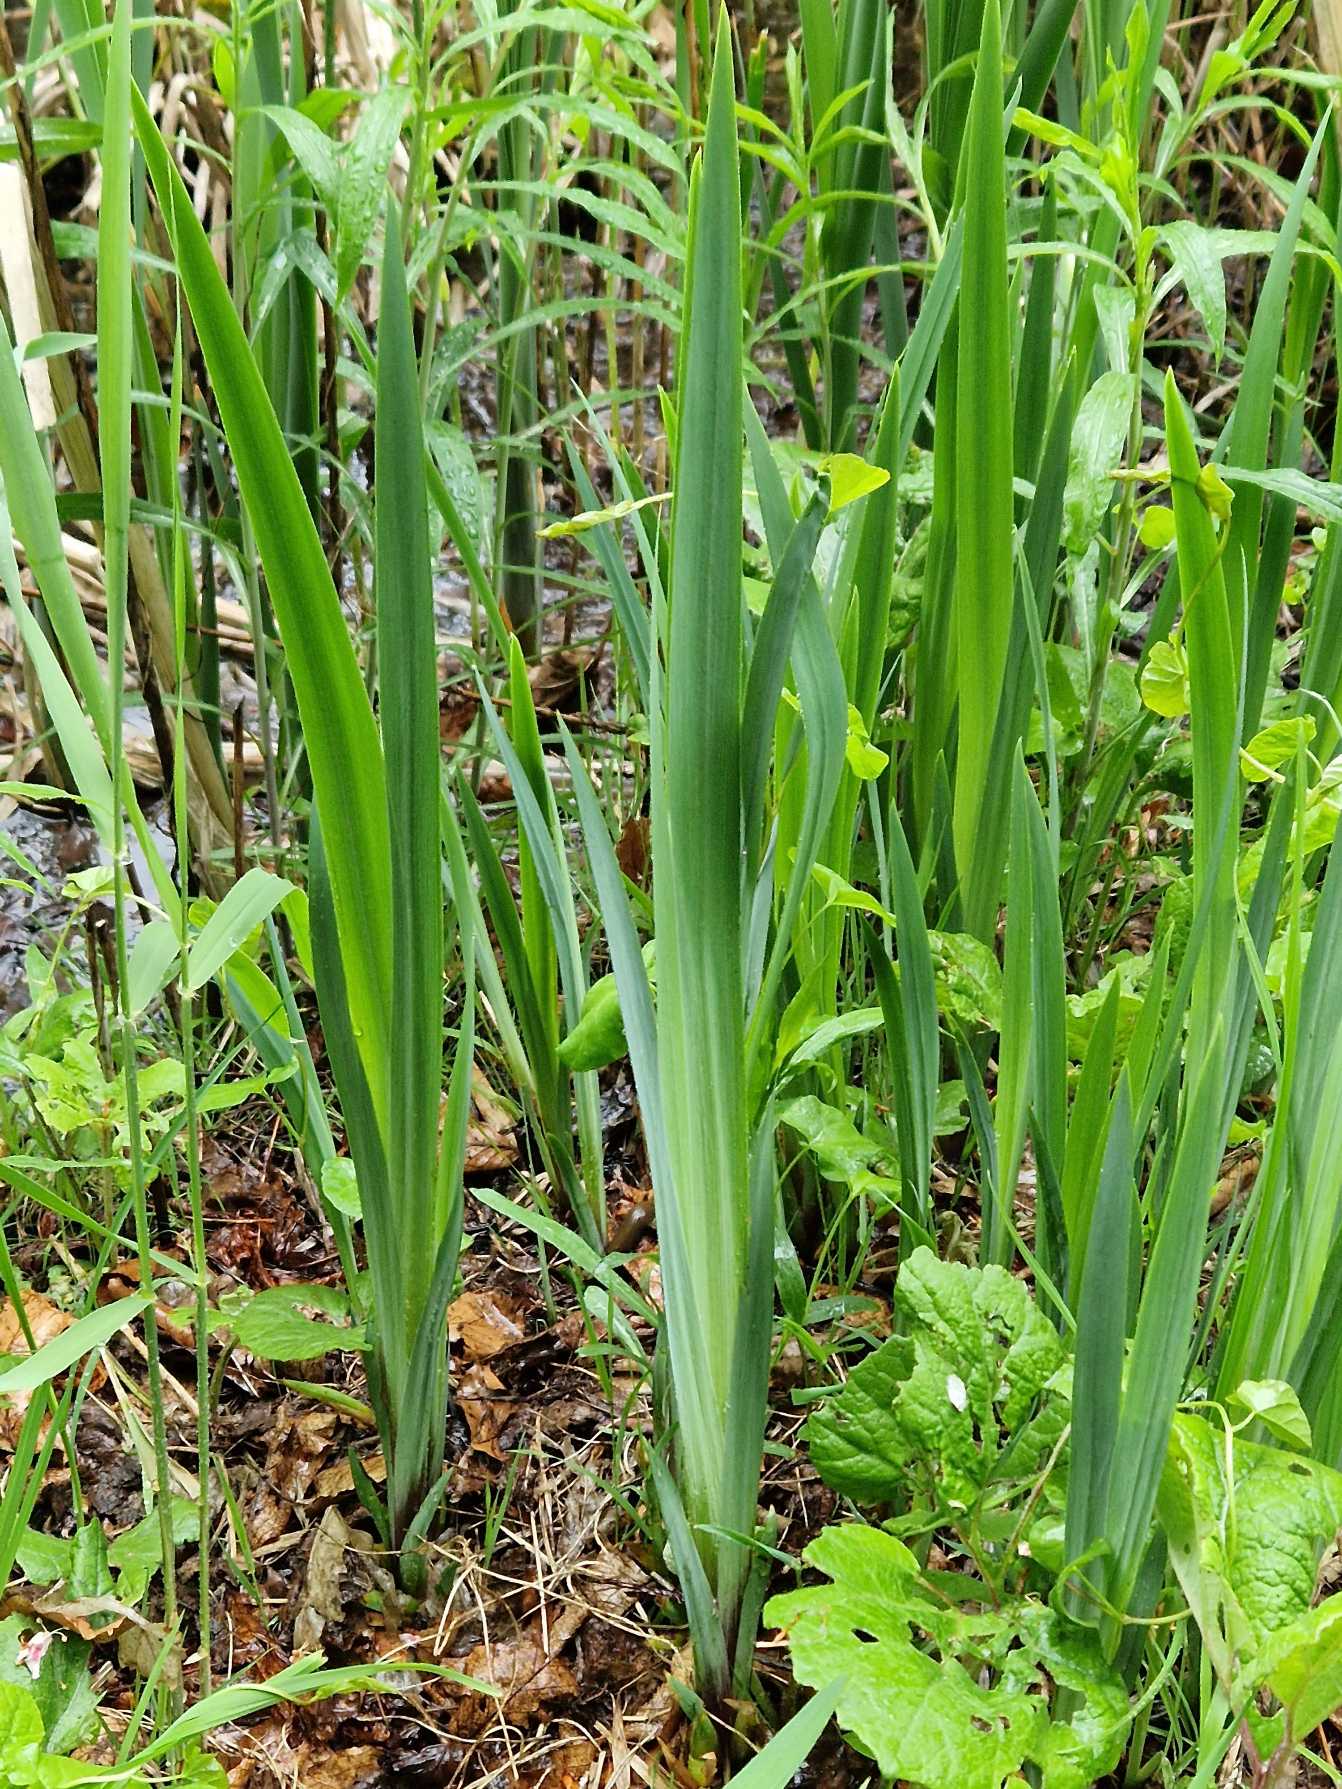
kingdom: Plantae
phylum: Tracheophyta
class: Liliopsida
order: Asparagales
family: Iridaceae
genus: Iris
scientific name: Iris pseudacorus
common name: Gul iris
